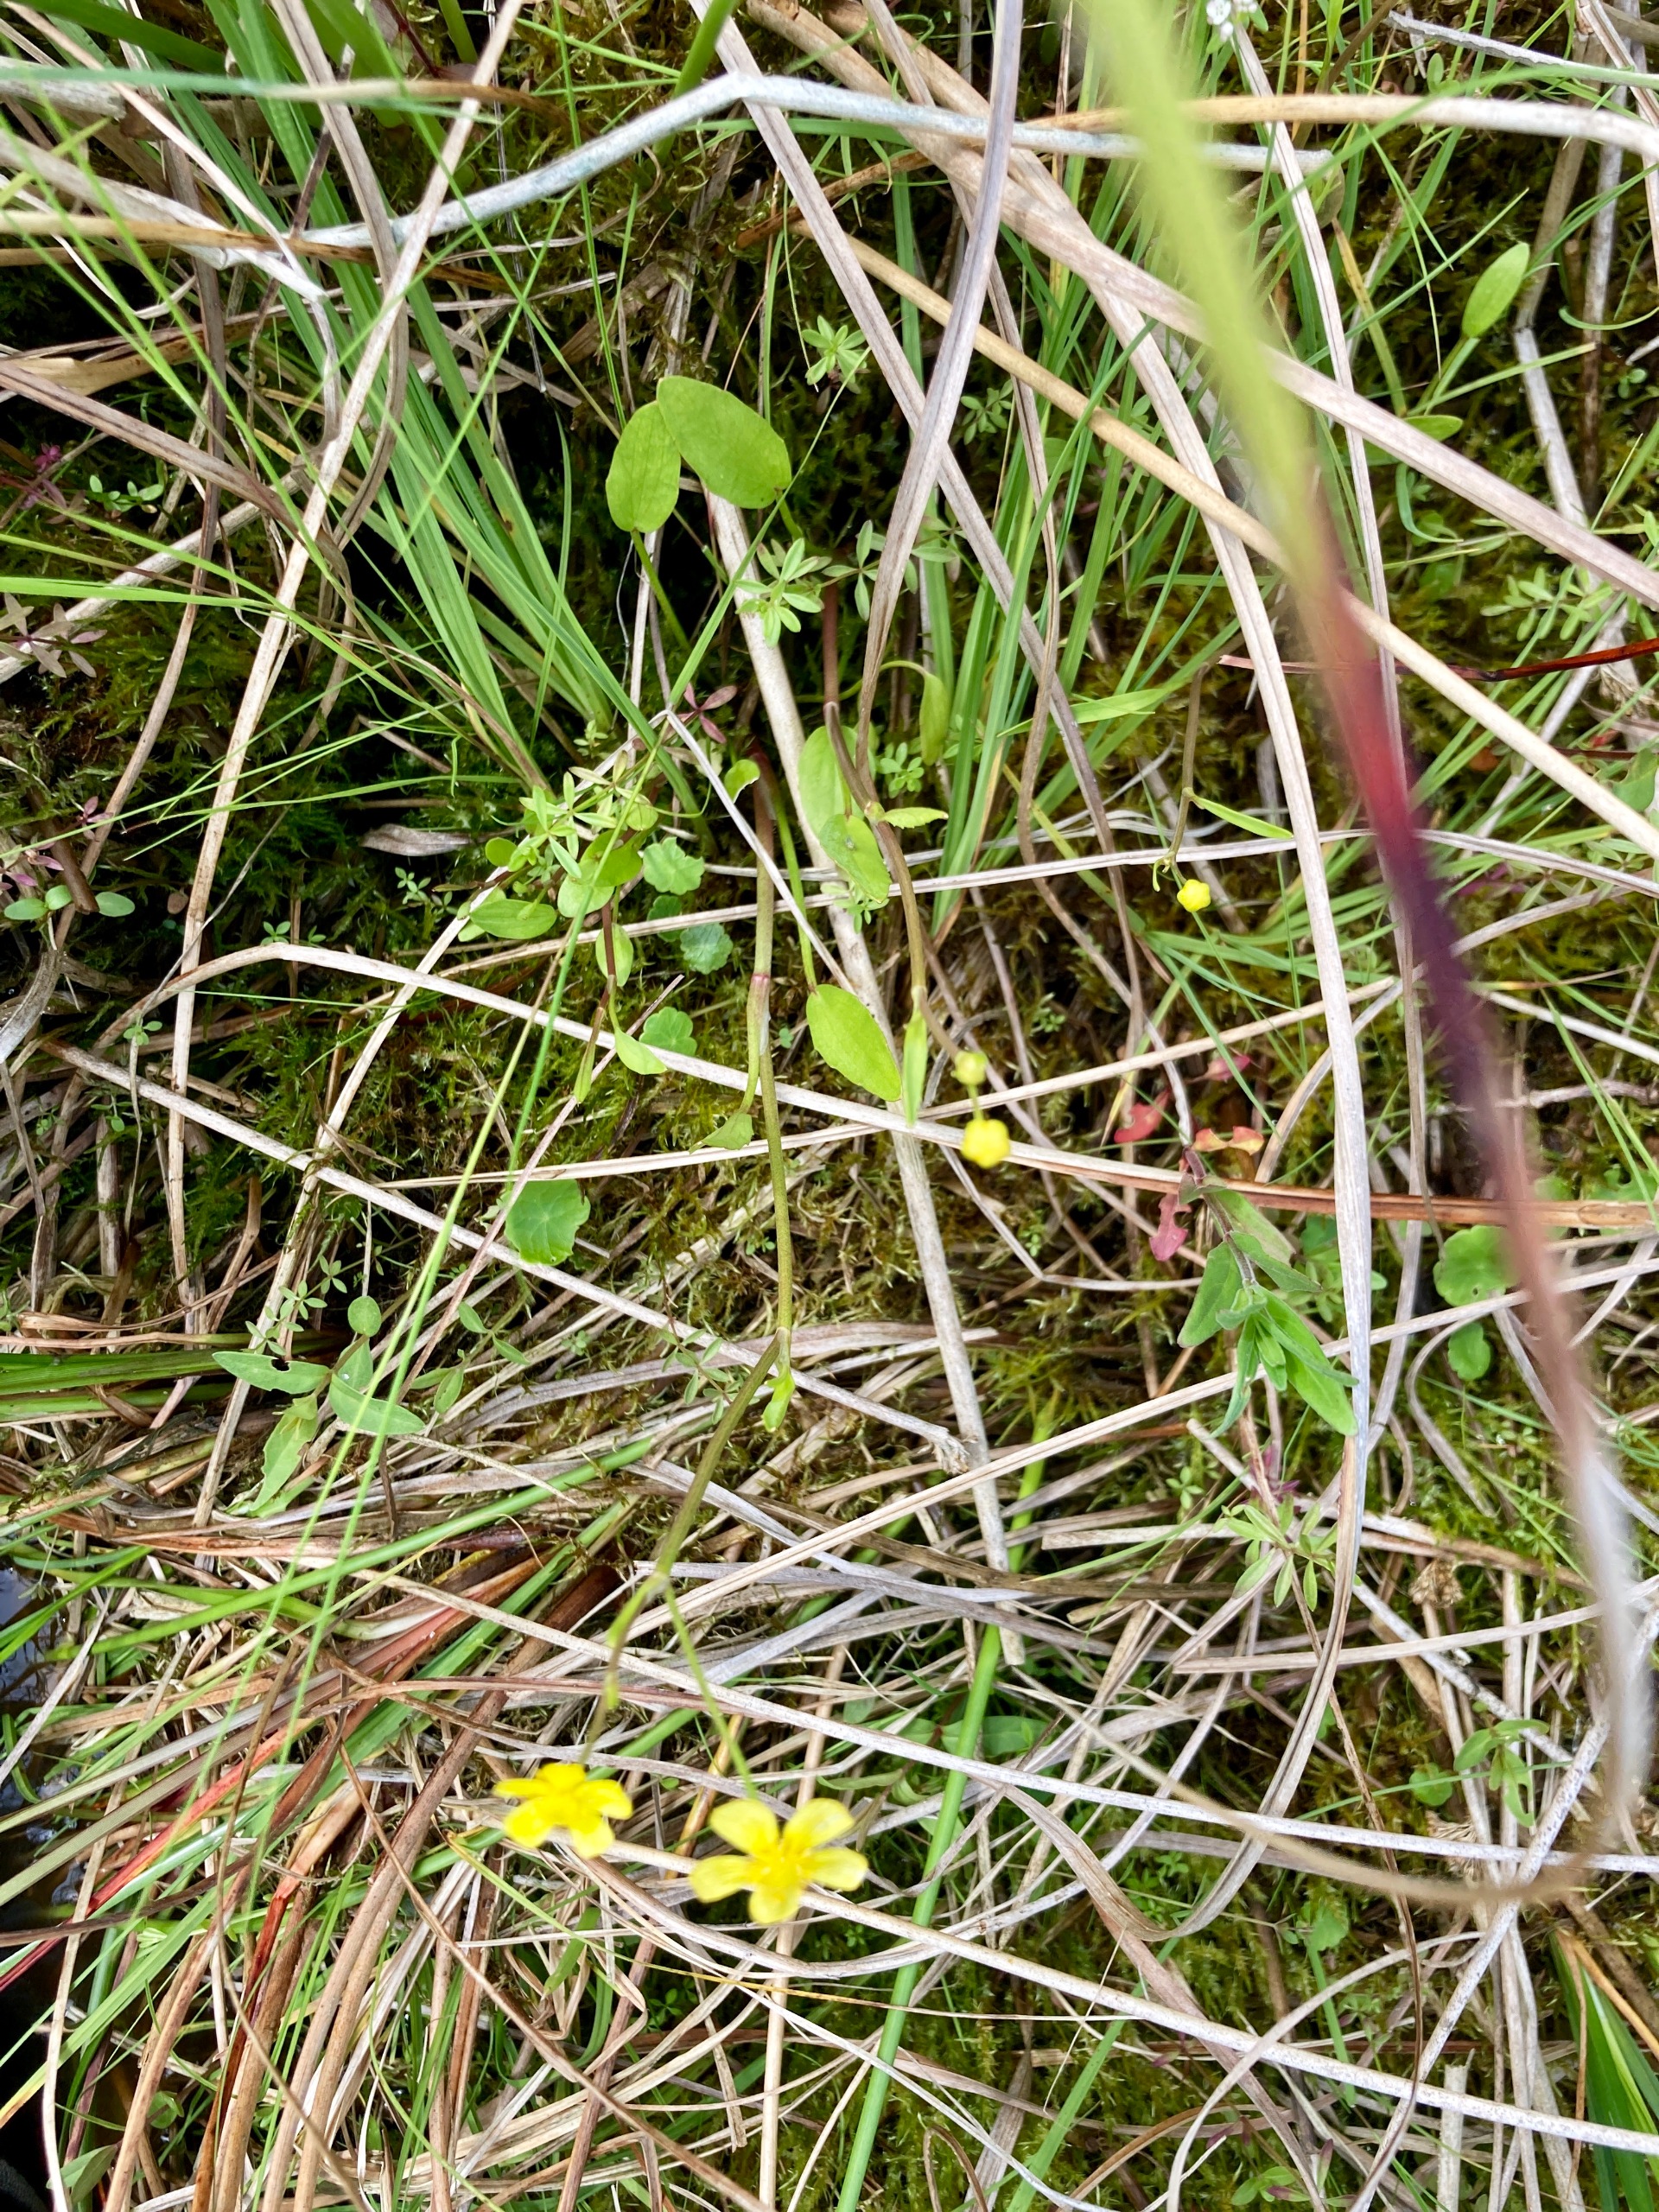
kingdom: Plantae
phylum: Tracheophyta
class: Magnoliopsida
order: Ranunculales
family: Ranunculaceae
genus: Ranunculus
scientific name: Ranunculus flammula
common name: Kær-ranunkel
